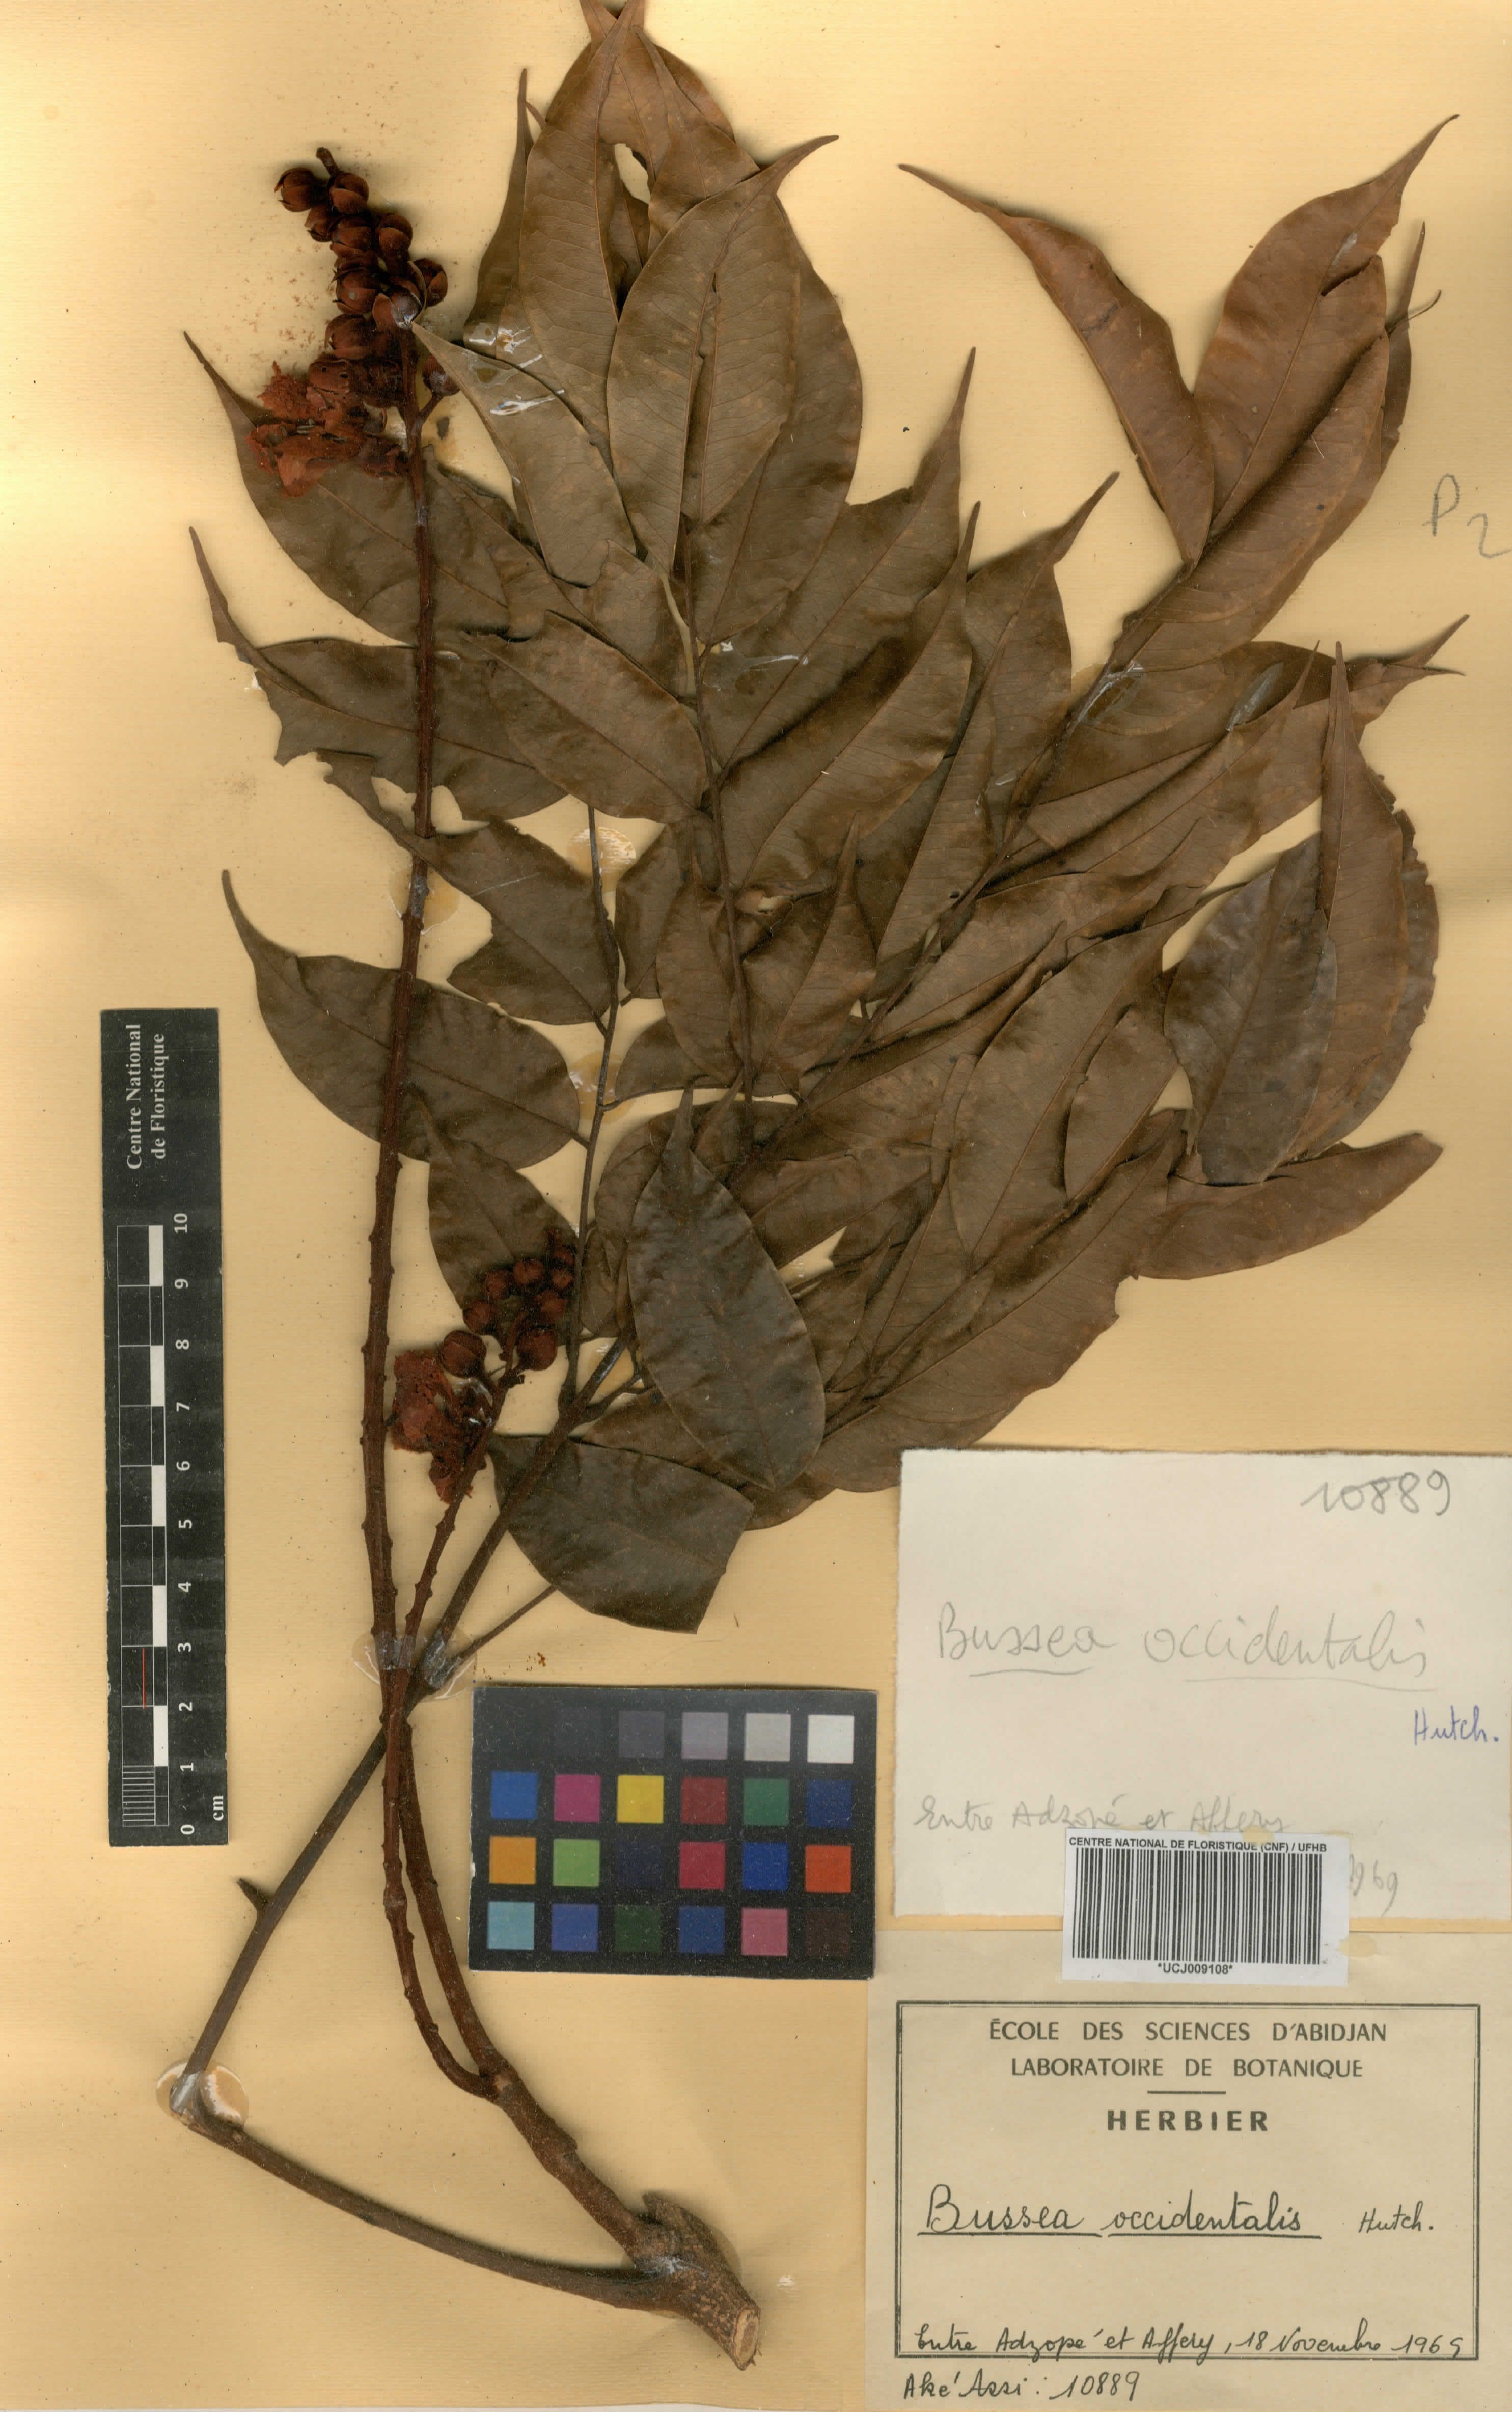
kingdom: Plantae
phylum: Tracheophyta
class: Magnoliopsida
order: Fabales
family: Fabaceae
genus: Bussea
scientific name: Bussea
